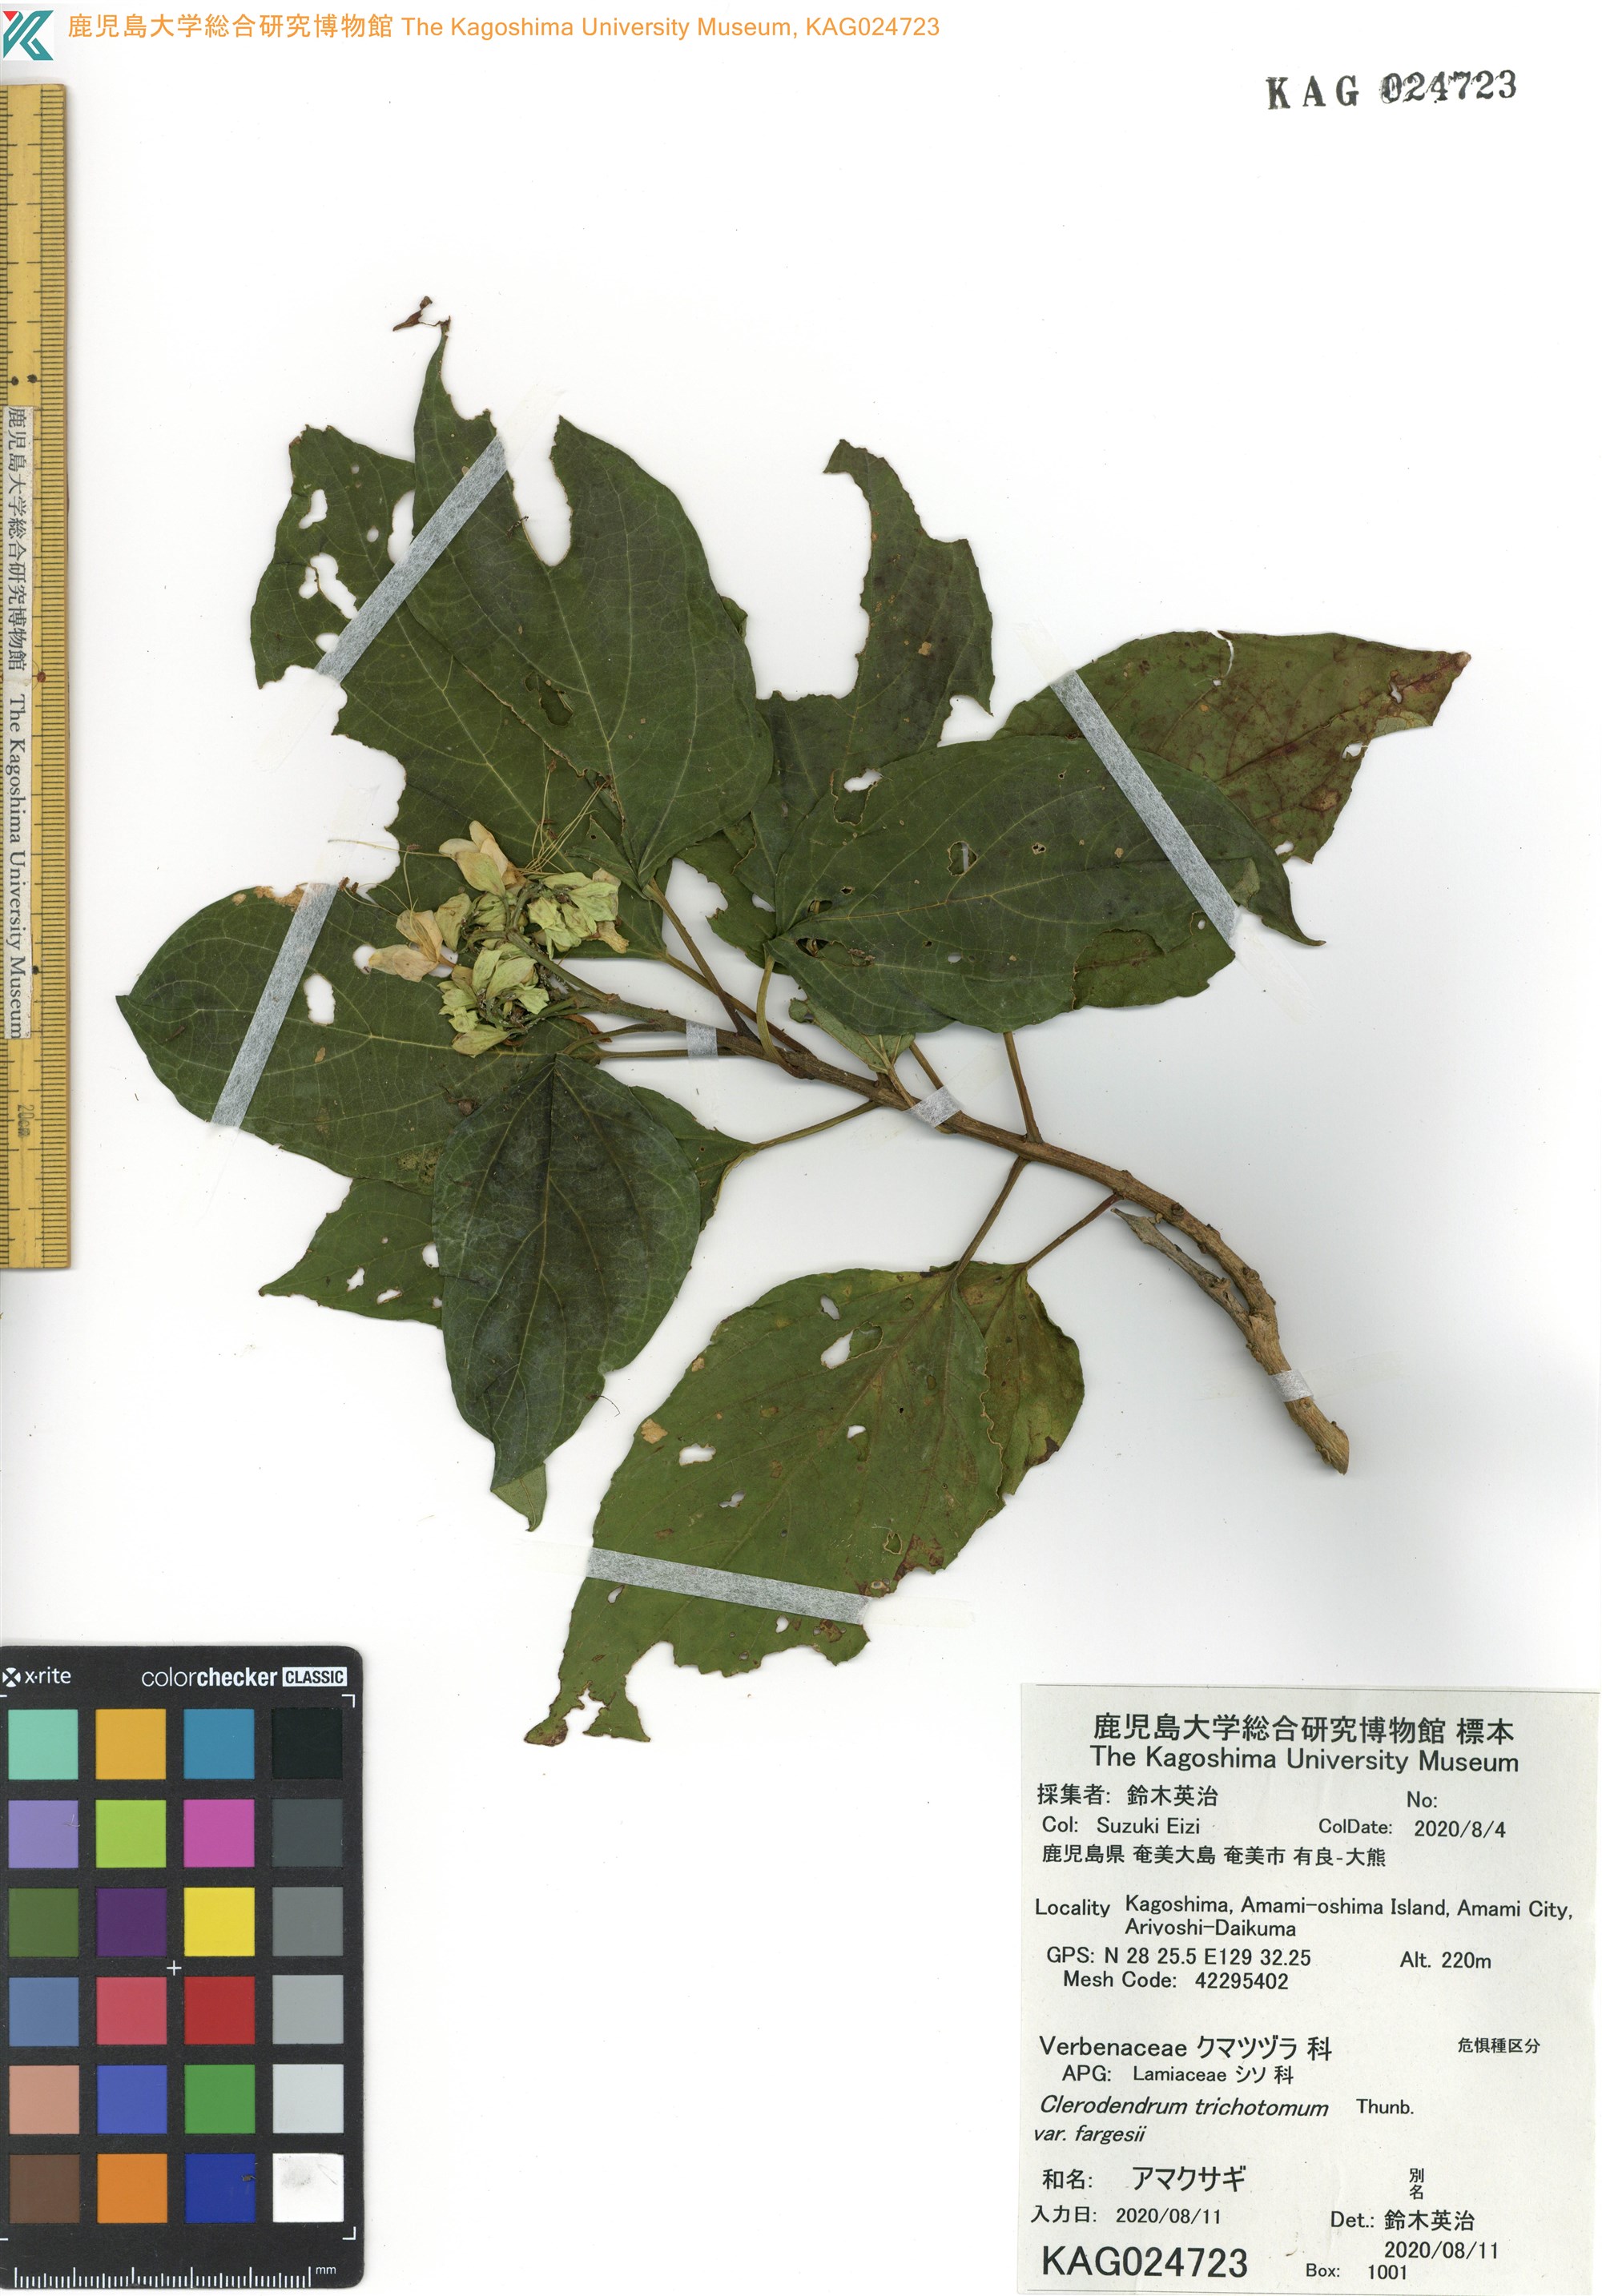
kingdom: Plantae
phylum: Tracheophyta
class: Magnoliopsida
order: Lamiales
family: Lamiaceae
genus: Clerodendrum
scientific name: Clerodendrum trichotomum
